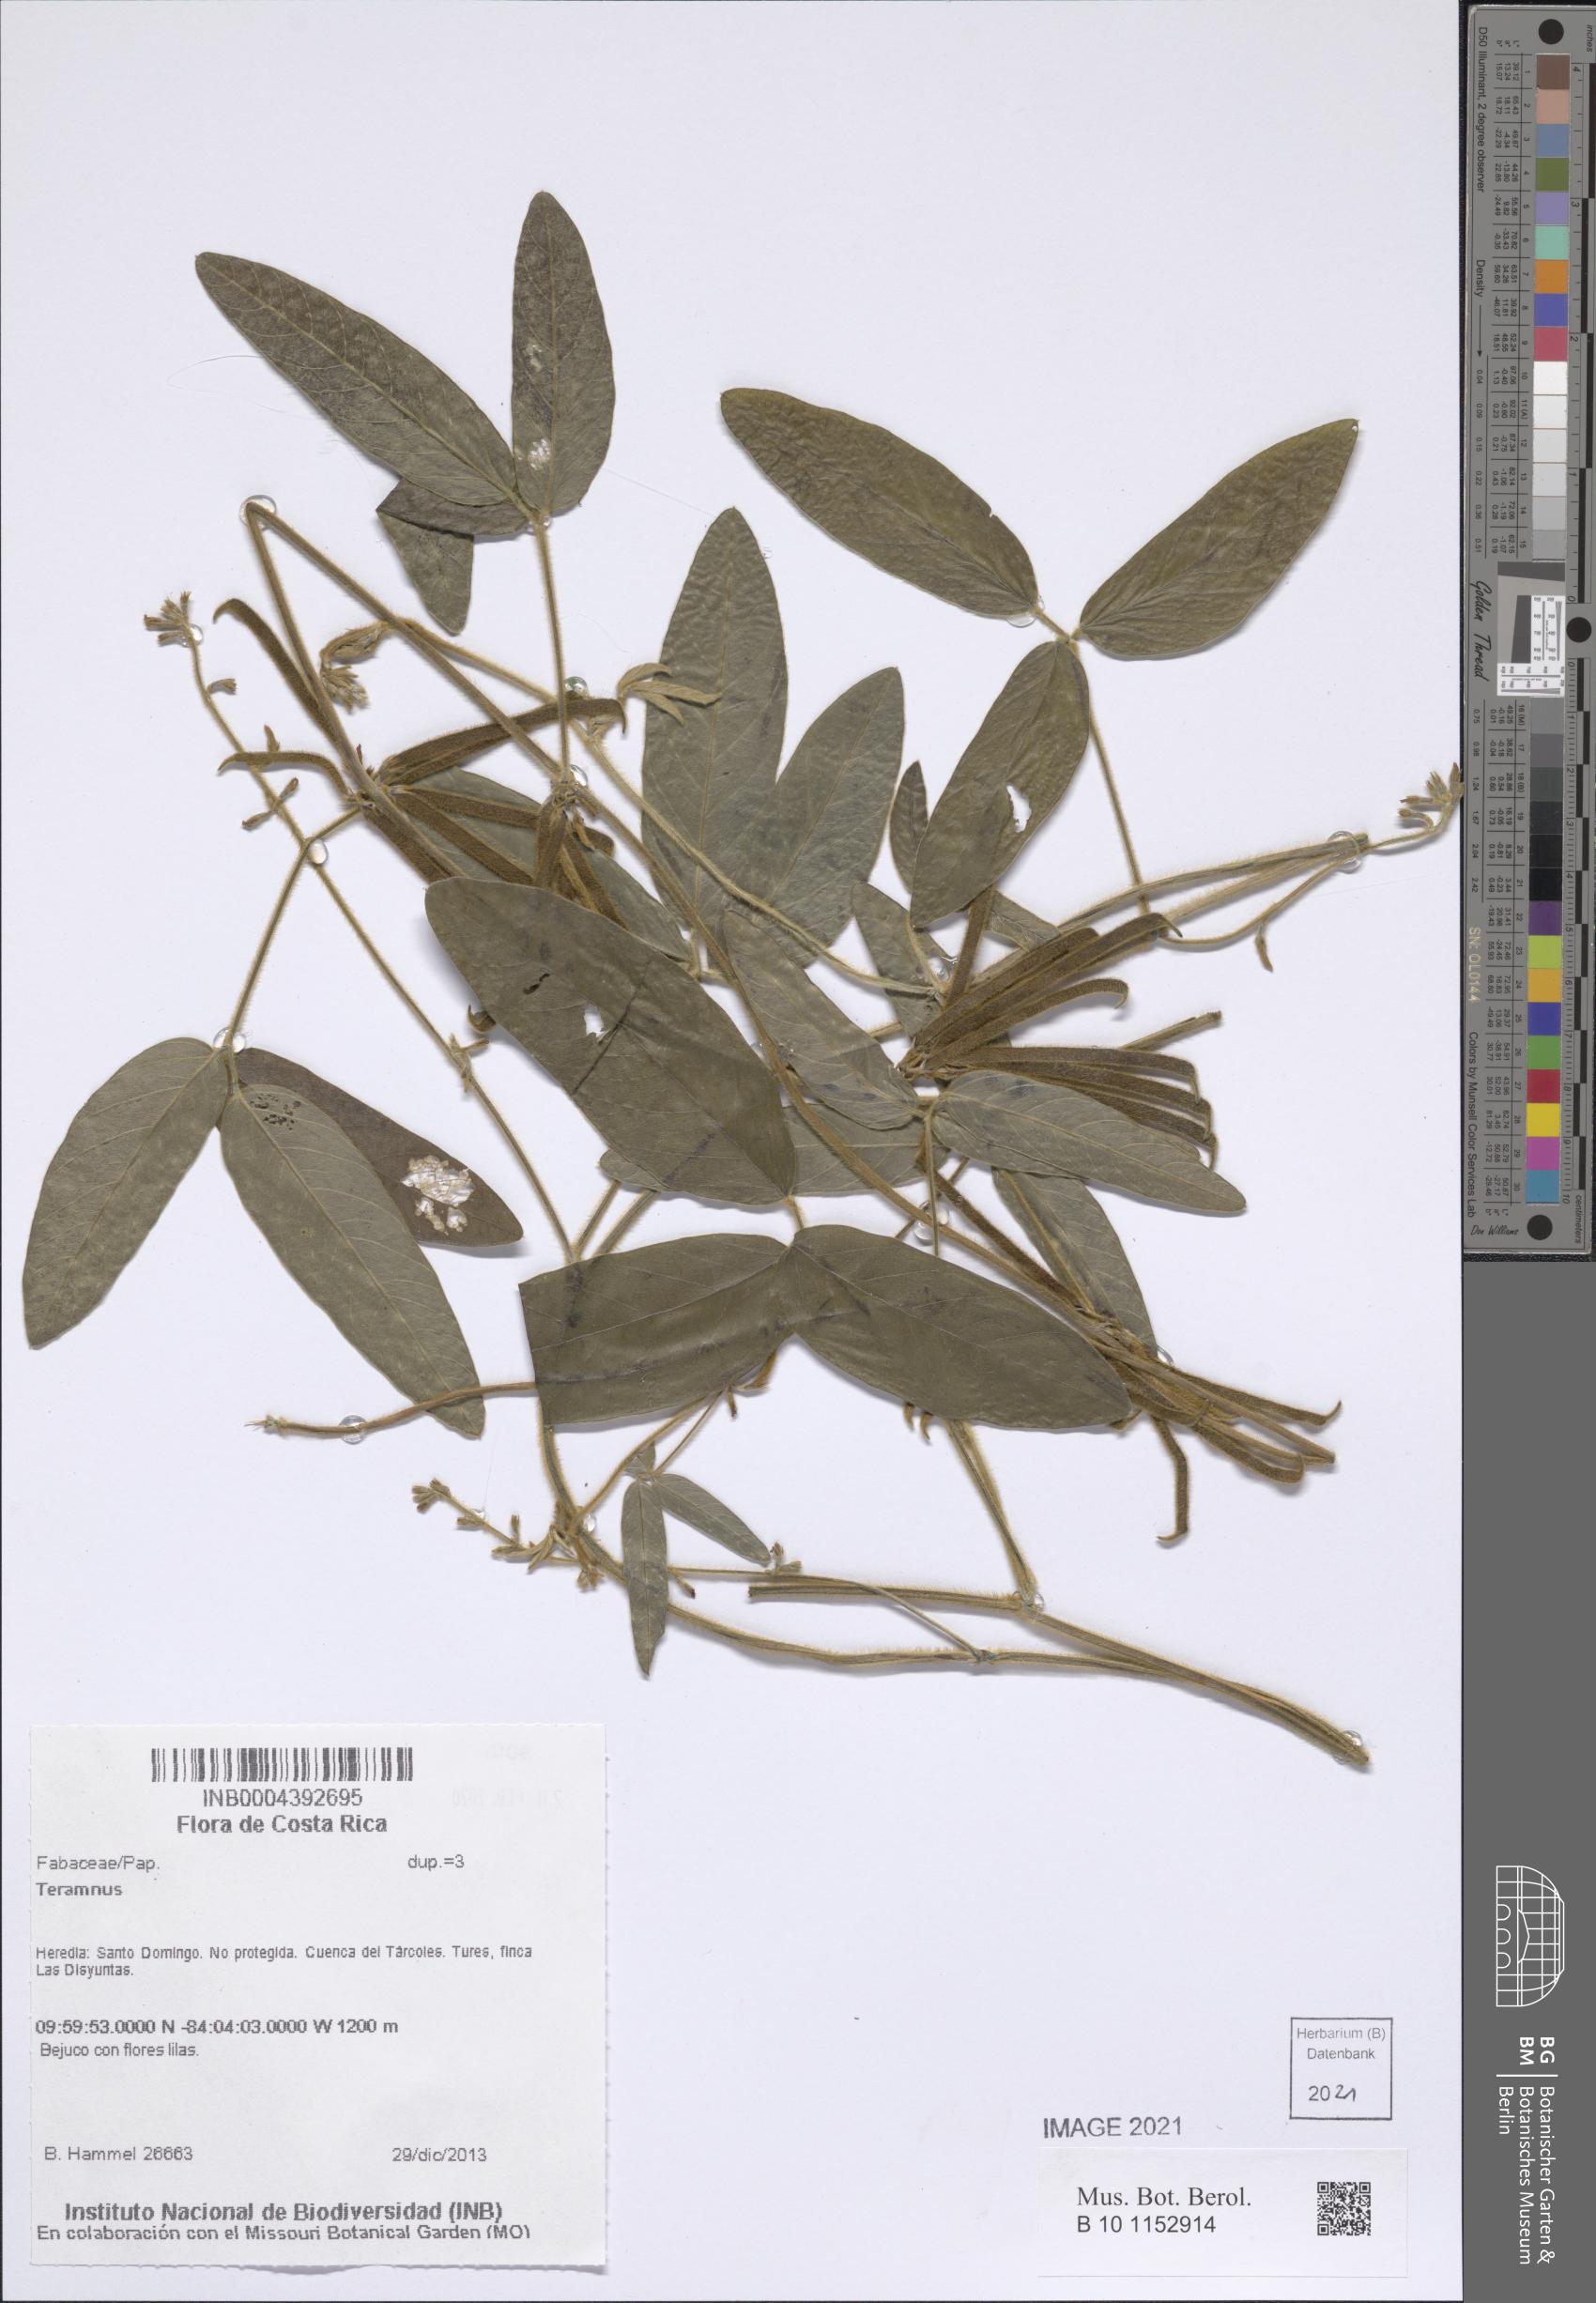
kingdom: Plantae
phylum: Tracheophyta
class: Magnoliopsida
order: Fabales
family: Fabaceae
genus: Teramnus
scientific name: Teramnus uncinatus
